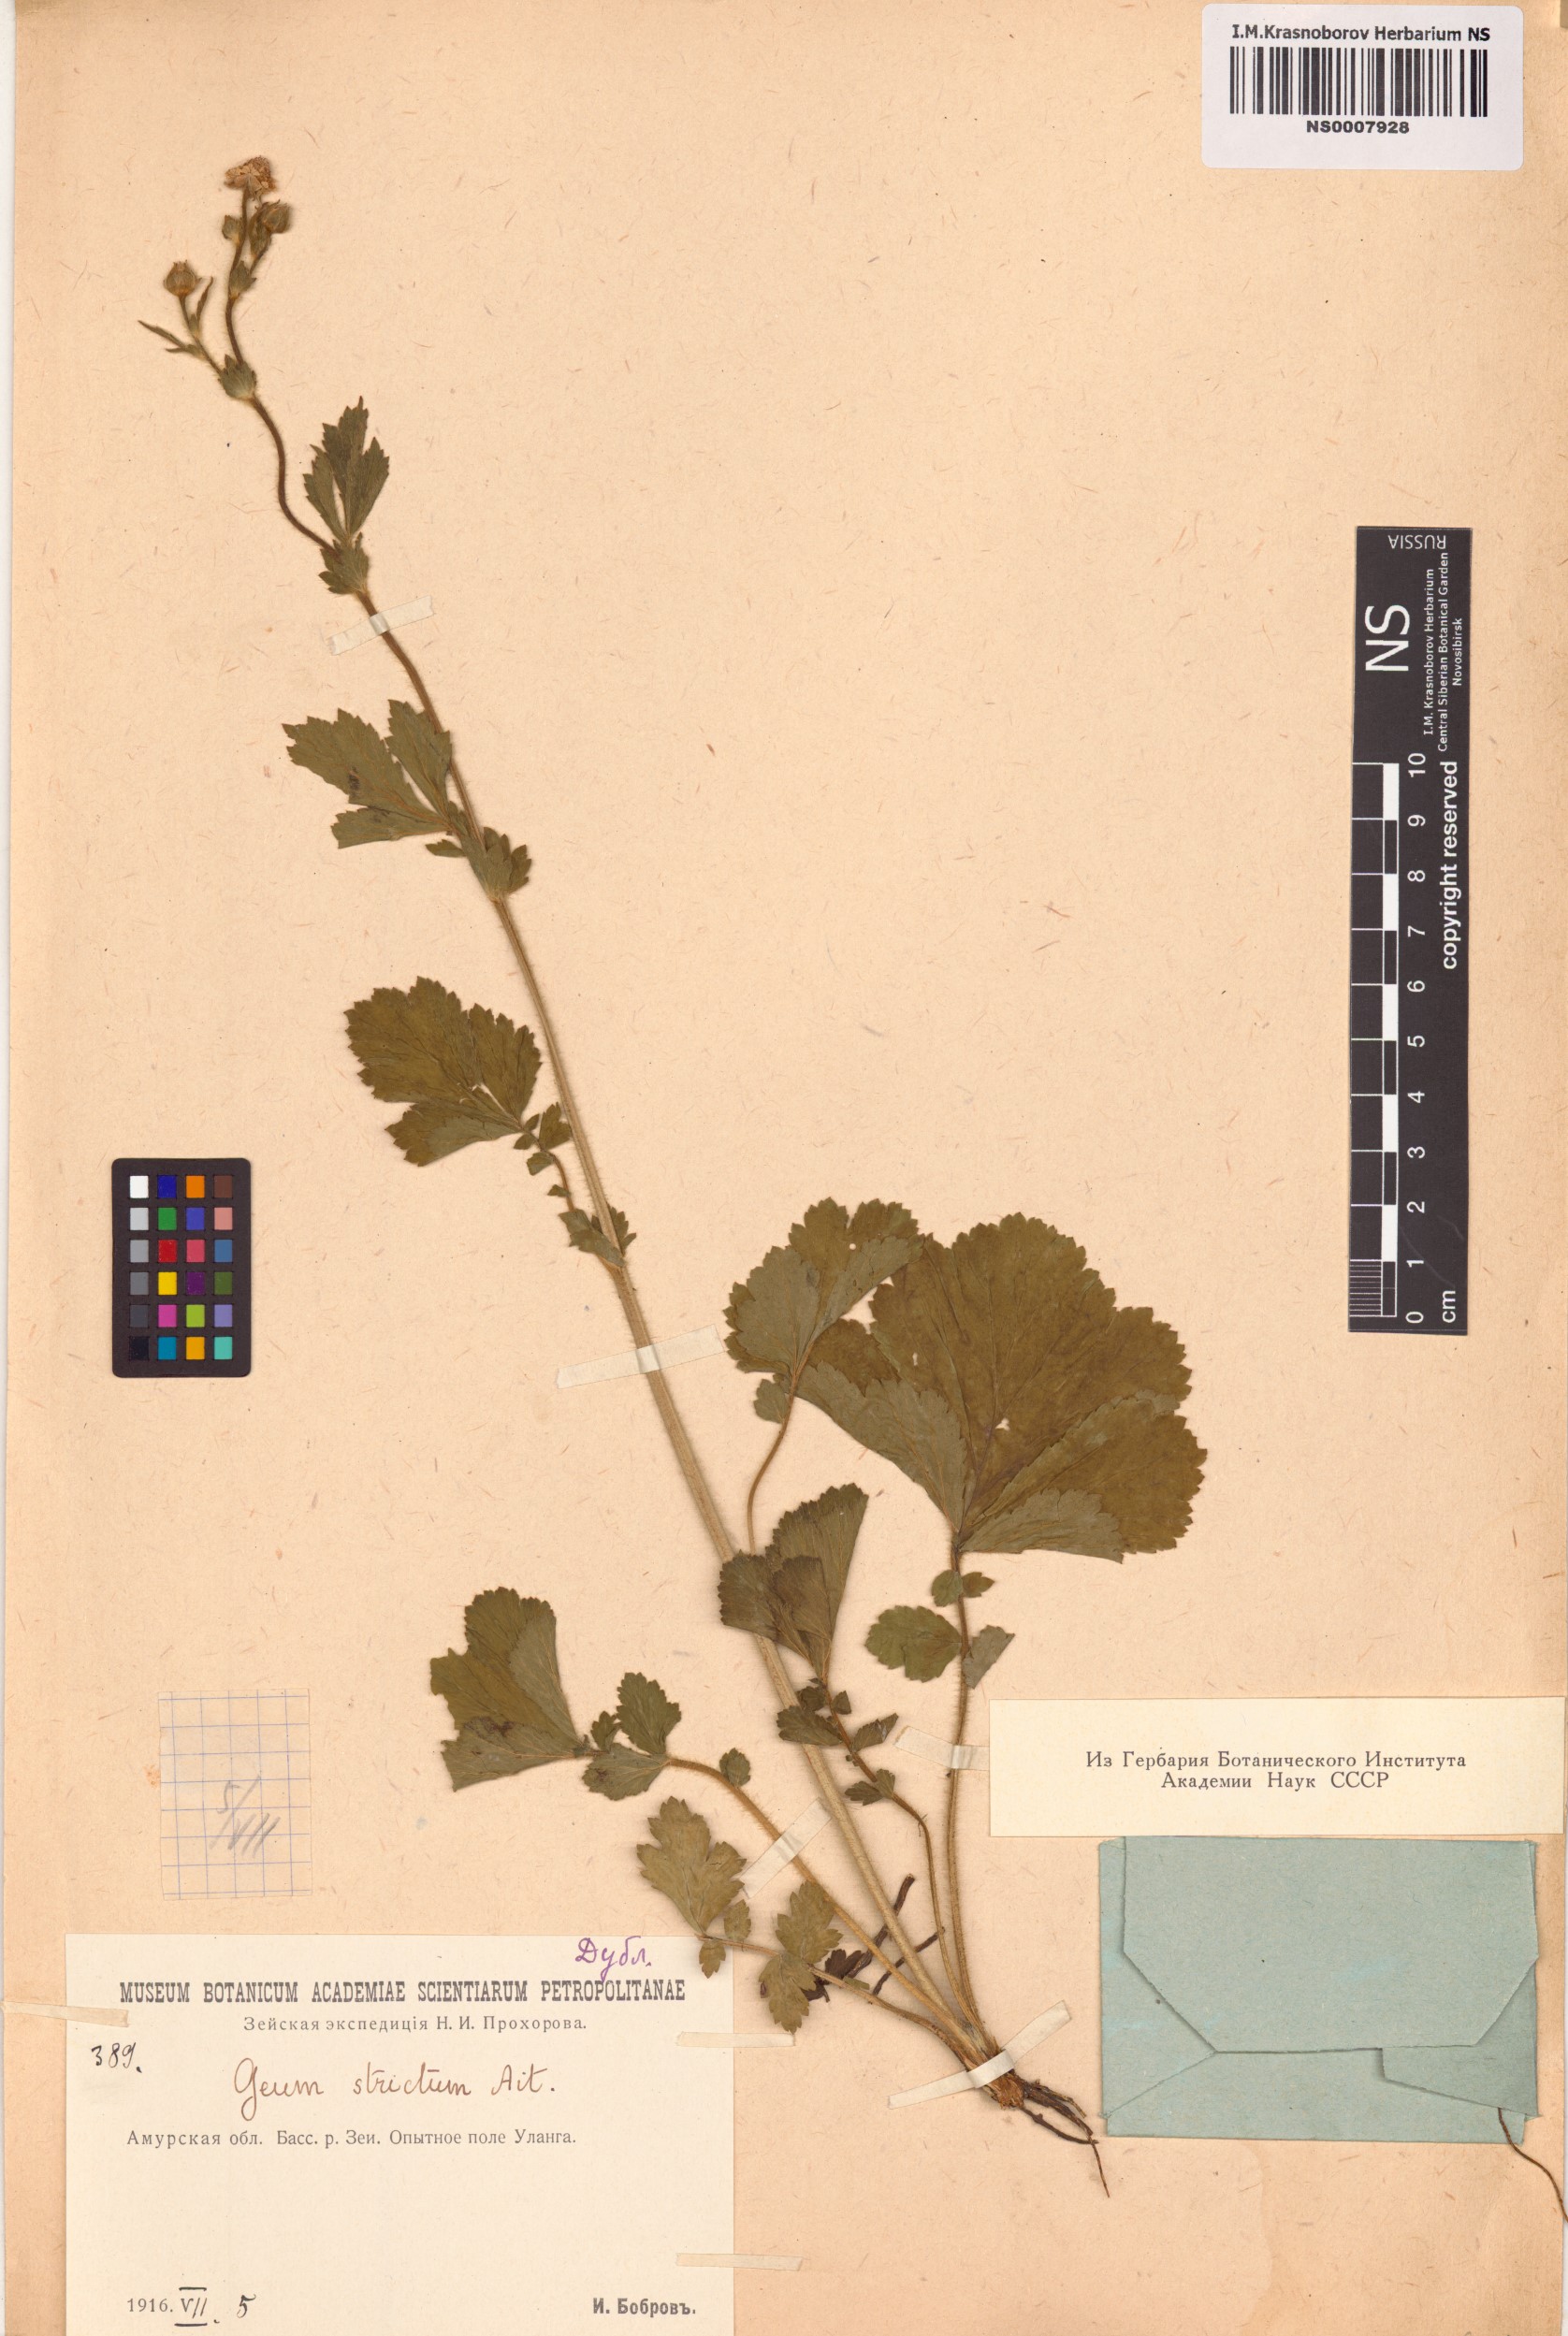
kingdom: Plantae
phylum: Tracheophyta
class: Magnoliopsida
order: Rosales
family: Rosaceae
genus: Geum
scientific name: Geum aleppicum
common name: Yellow avens
